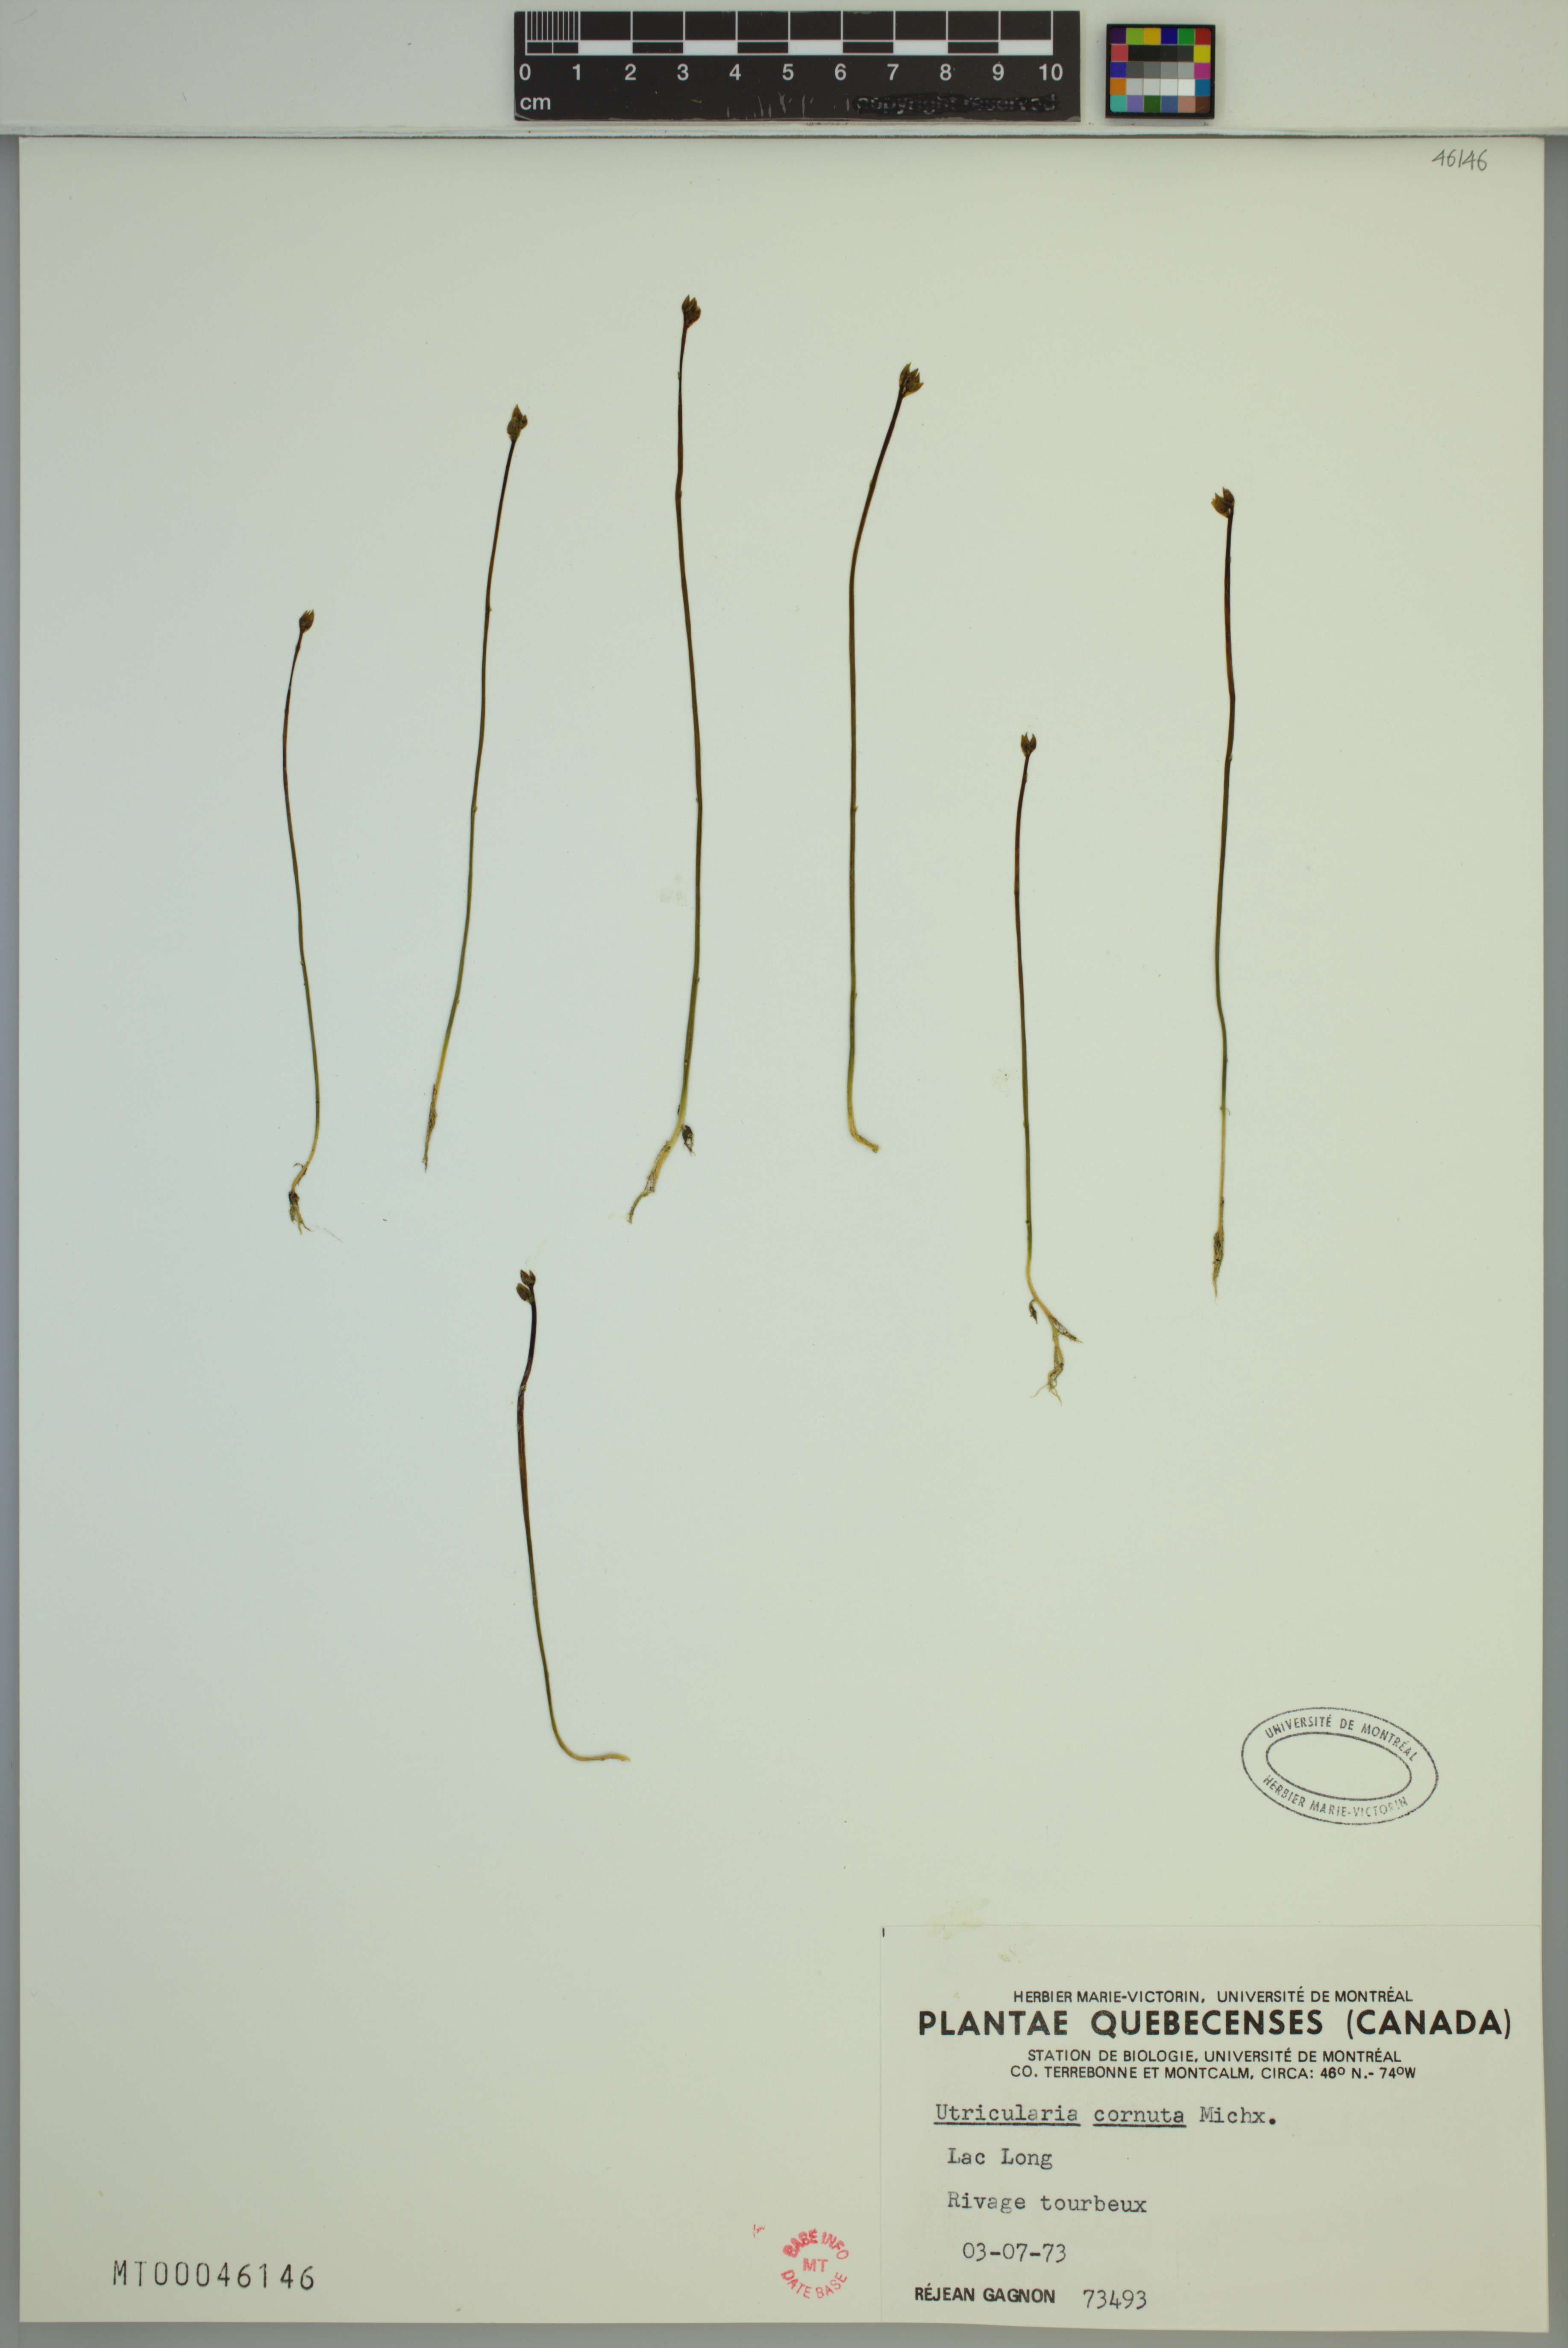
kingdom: Plantae
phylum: Tracheophyta
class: Magnoliopsida
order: Lamiales
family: Lentibulariaceae
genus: Utricularia
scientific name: Utricularia cornuta
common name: Horned bladderwort
